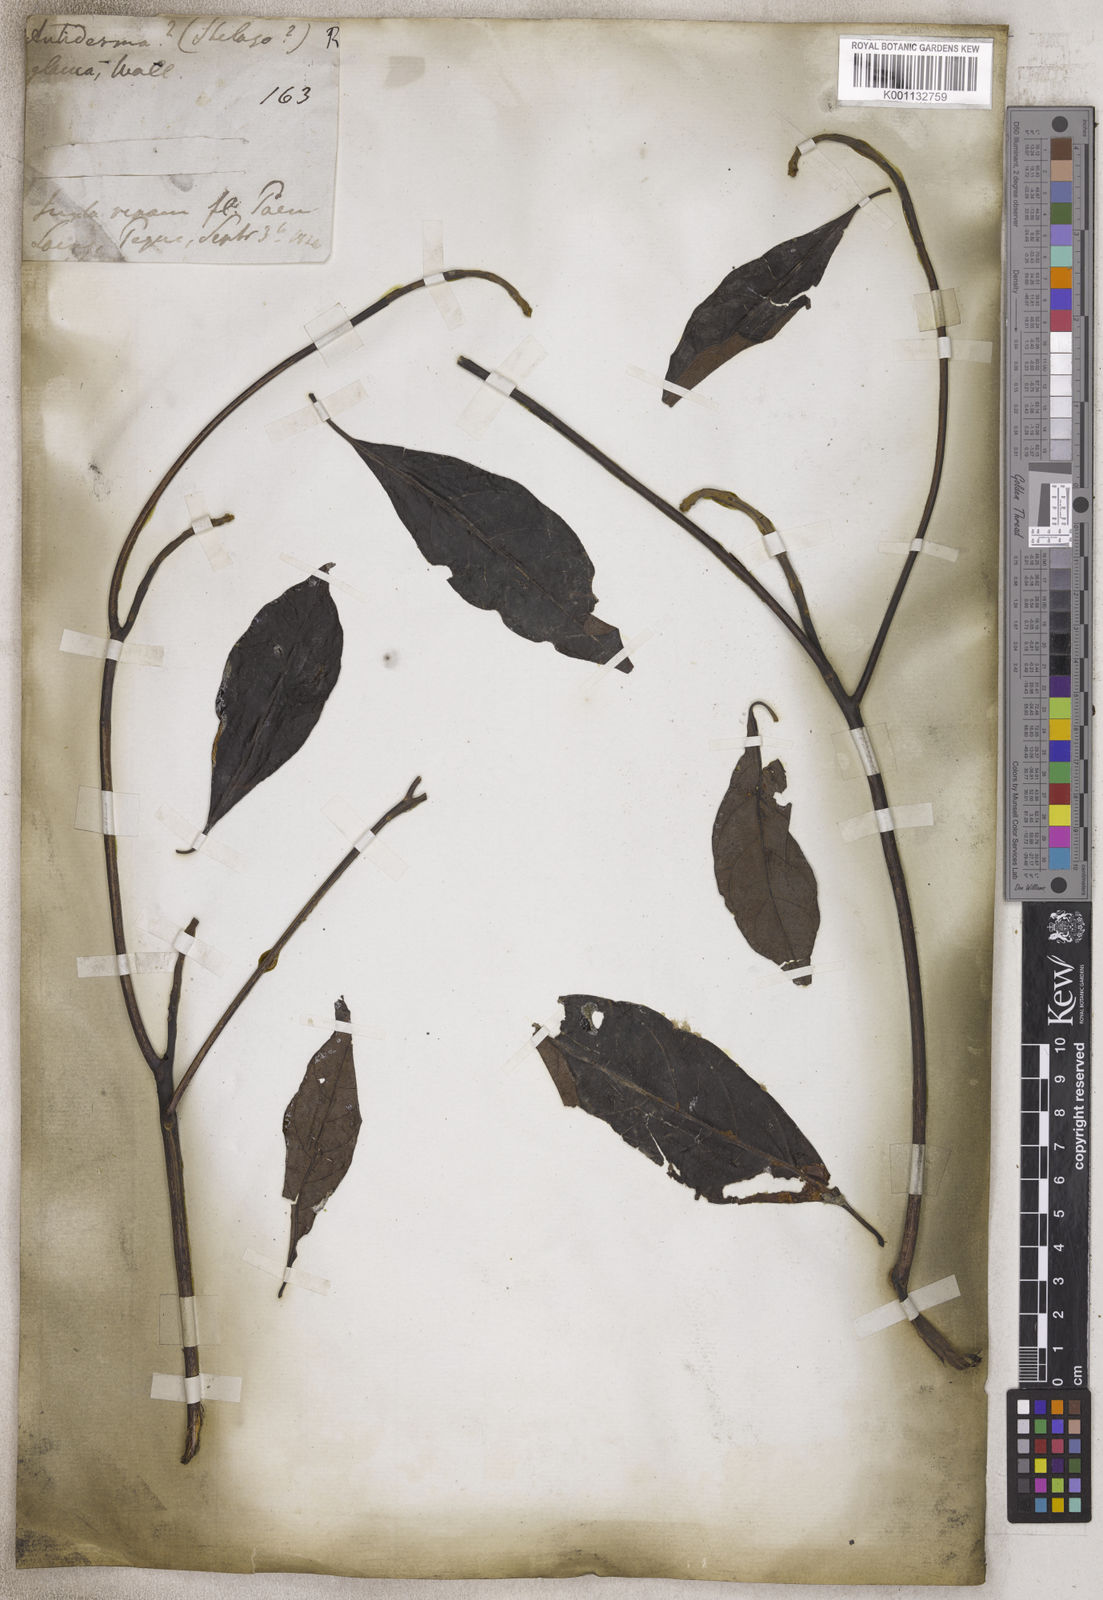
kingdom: Plantae
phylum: Tracheophyta
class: Magnoliopsida
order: Malpighiales
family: Phyllanthaceae
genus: Antidesma
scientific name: Antidesma
